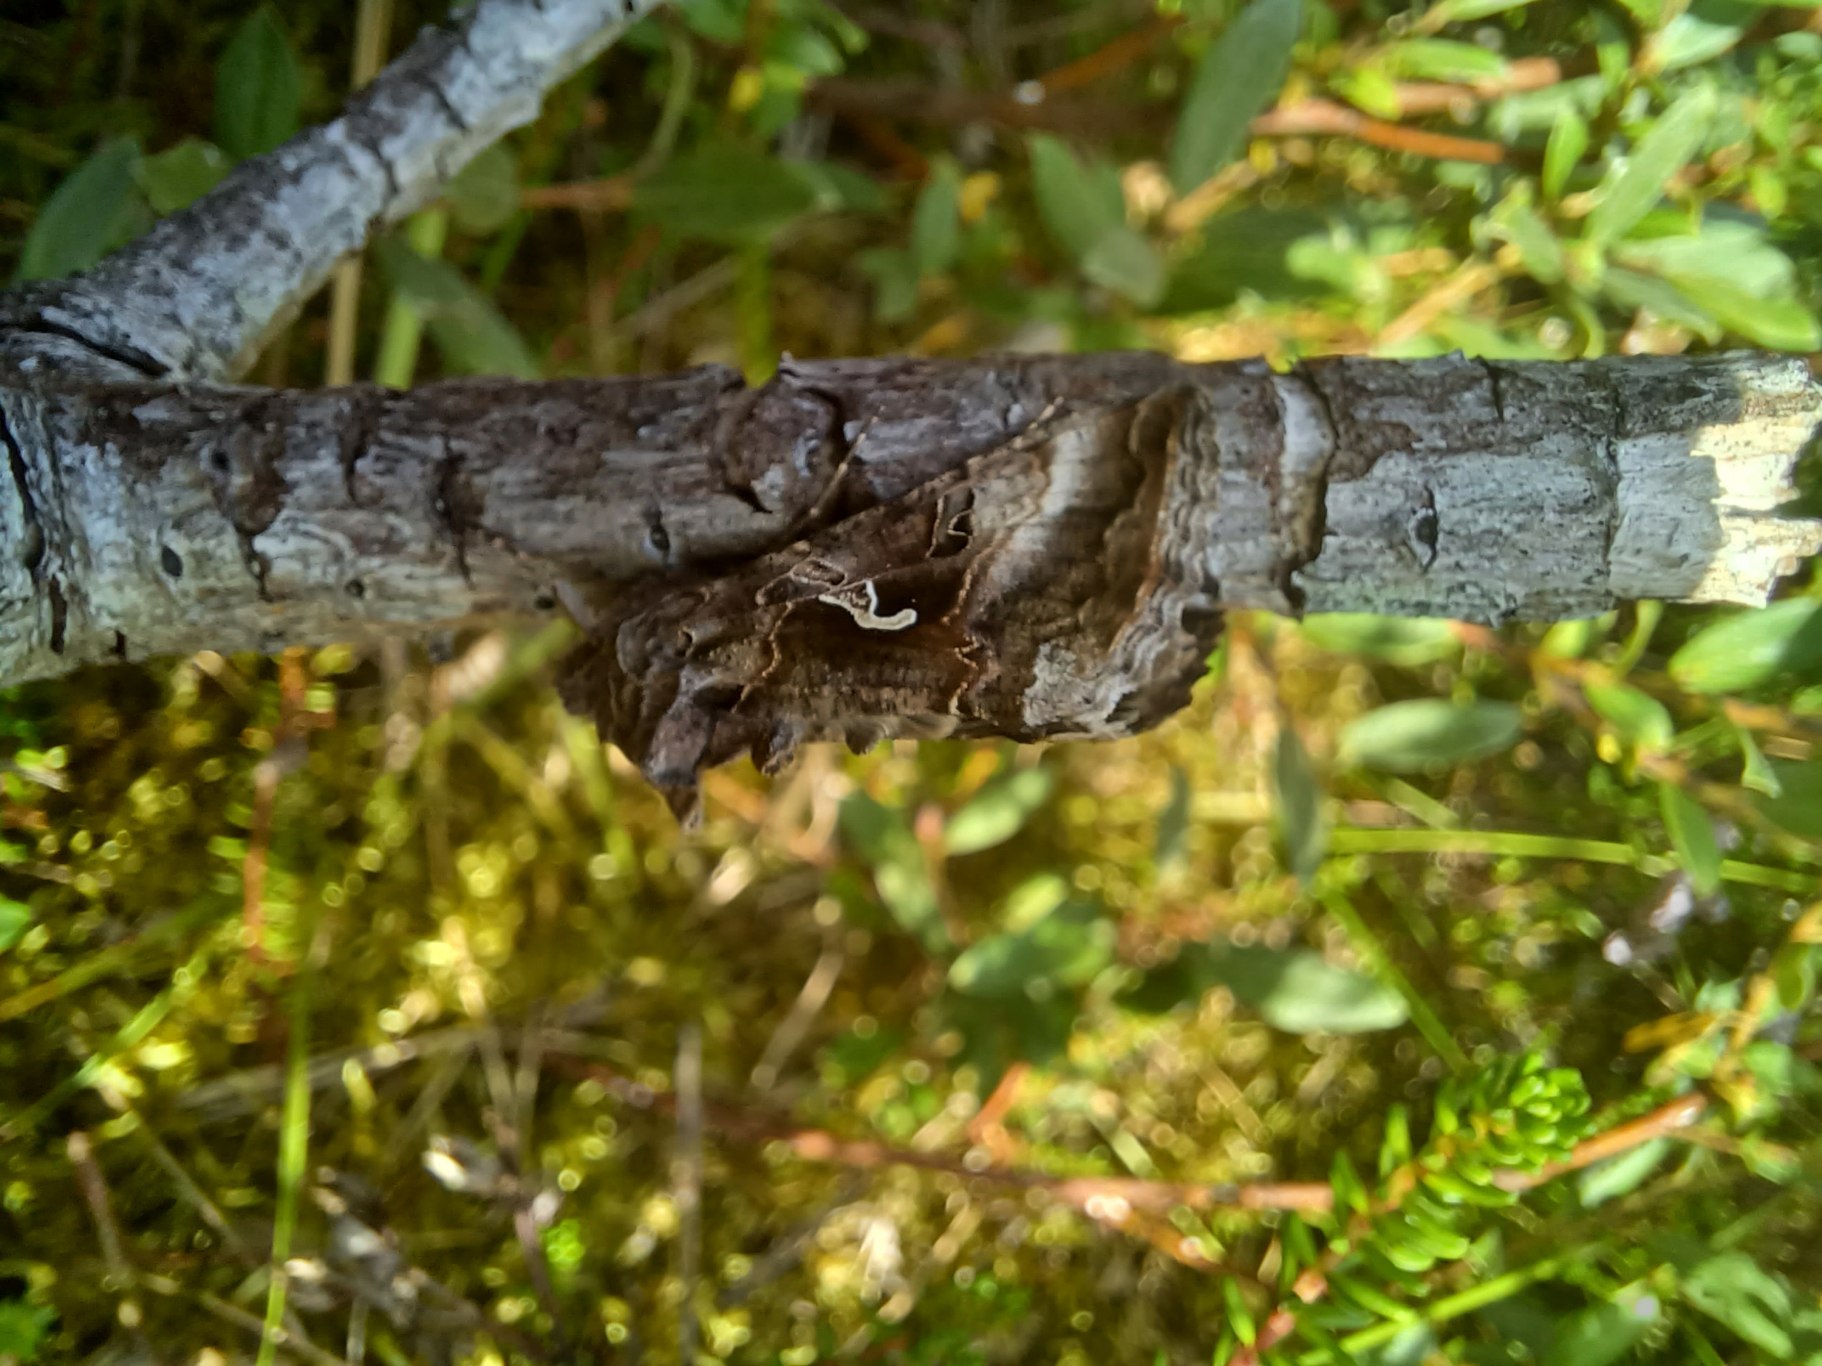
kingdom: Animalia
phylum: Arthropoda
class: Insecta
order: Lepidoptera
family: Noctuidae
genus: Autographa
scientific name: Autographa gamma
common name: Gammaugle
